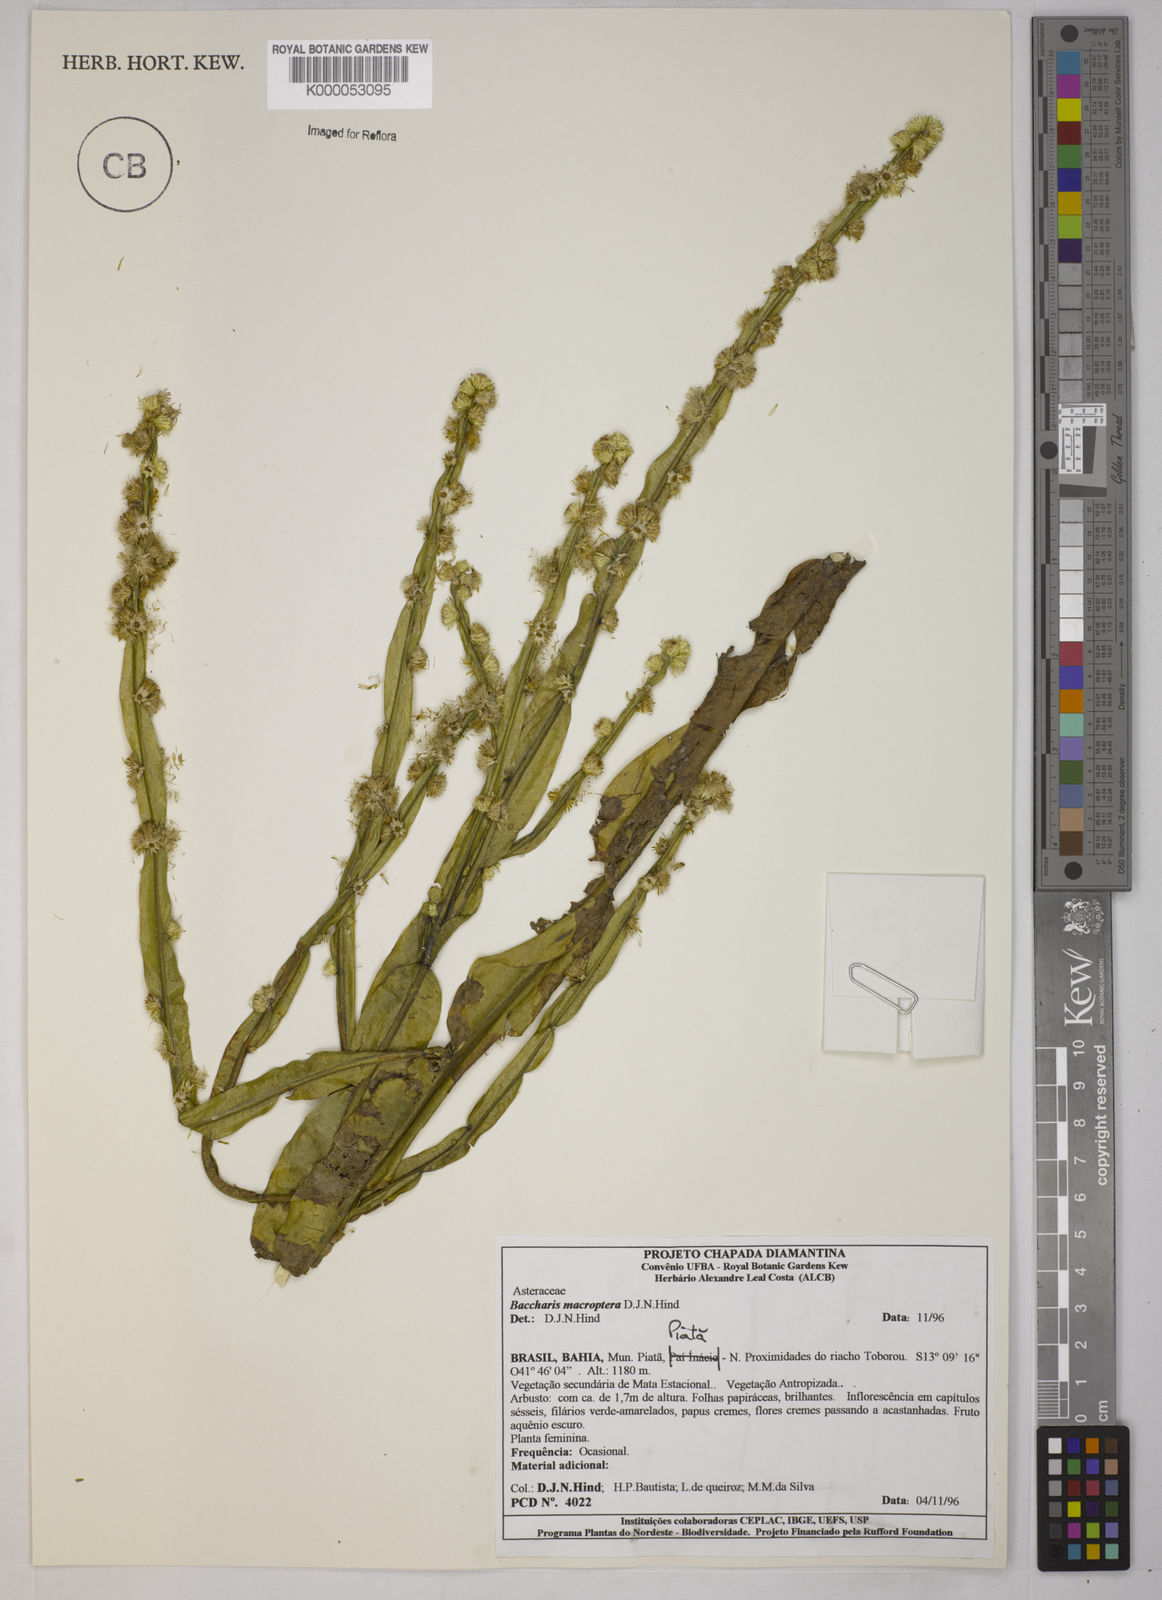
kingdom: Plantae
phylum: Tracheophyta
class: Magnoliopsida
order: Asterales
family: Asteraceae
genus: Baccharis
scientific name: Baccharis sagittalis
